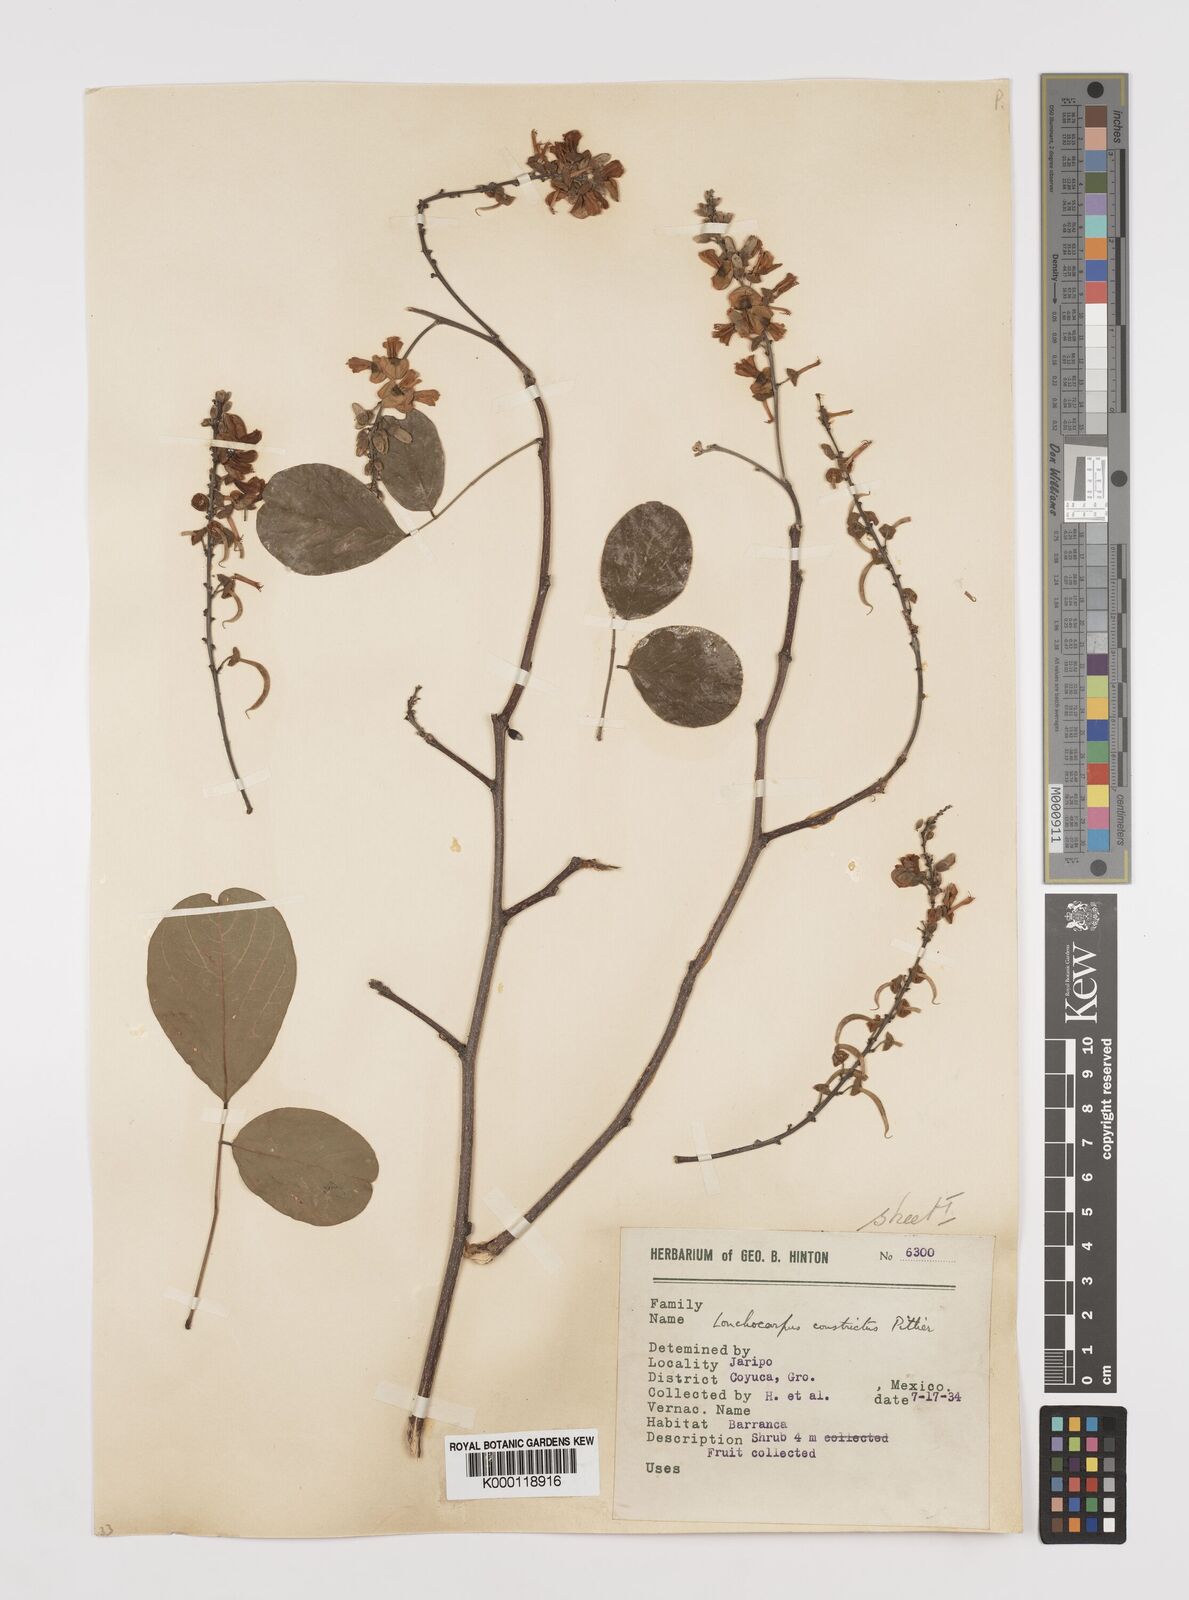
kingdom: Plantae
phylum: Tracheophyta
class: Magnoliopsida
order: Fabales
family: Fabaceae
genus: Lonchocarpus
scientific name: Lonchocarpus constrictus
